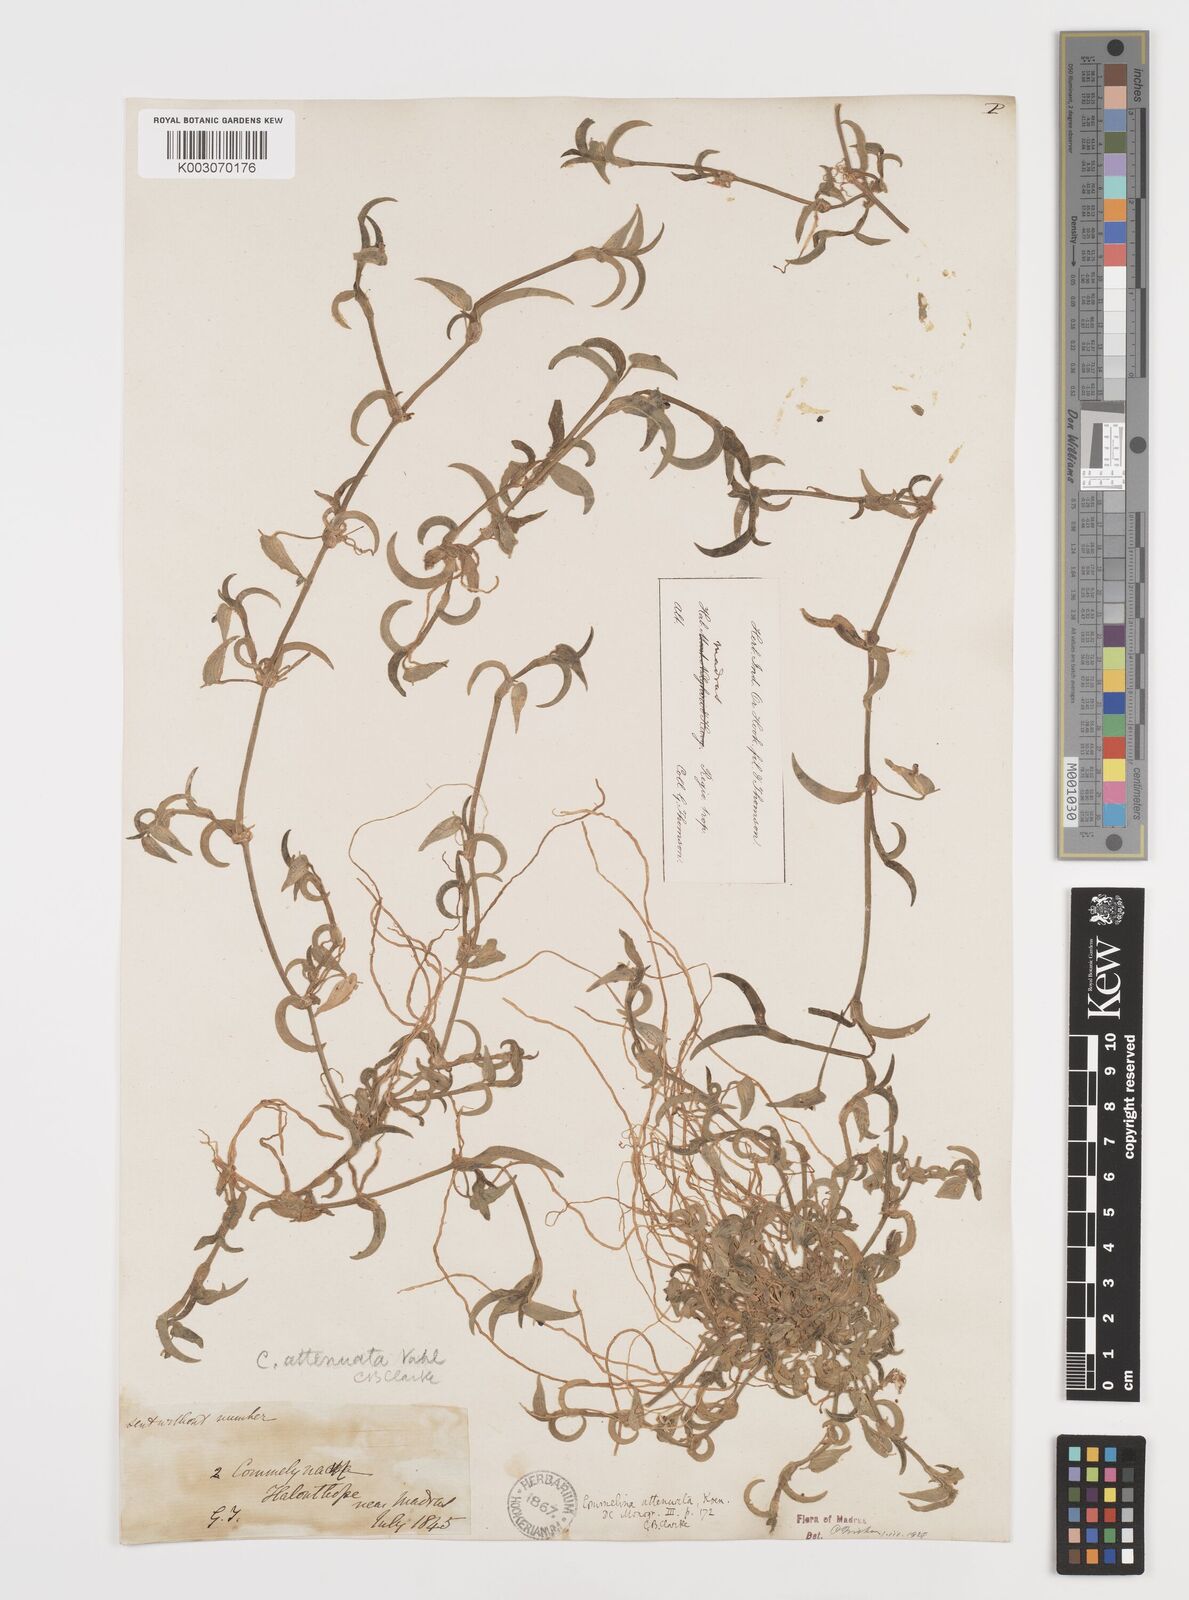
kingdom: Plantae
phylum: Tracheophyta
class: Liliopsida
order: Commelinales
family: Commelinaceae
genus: Commelina
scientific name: Commelina attenuata
